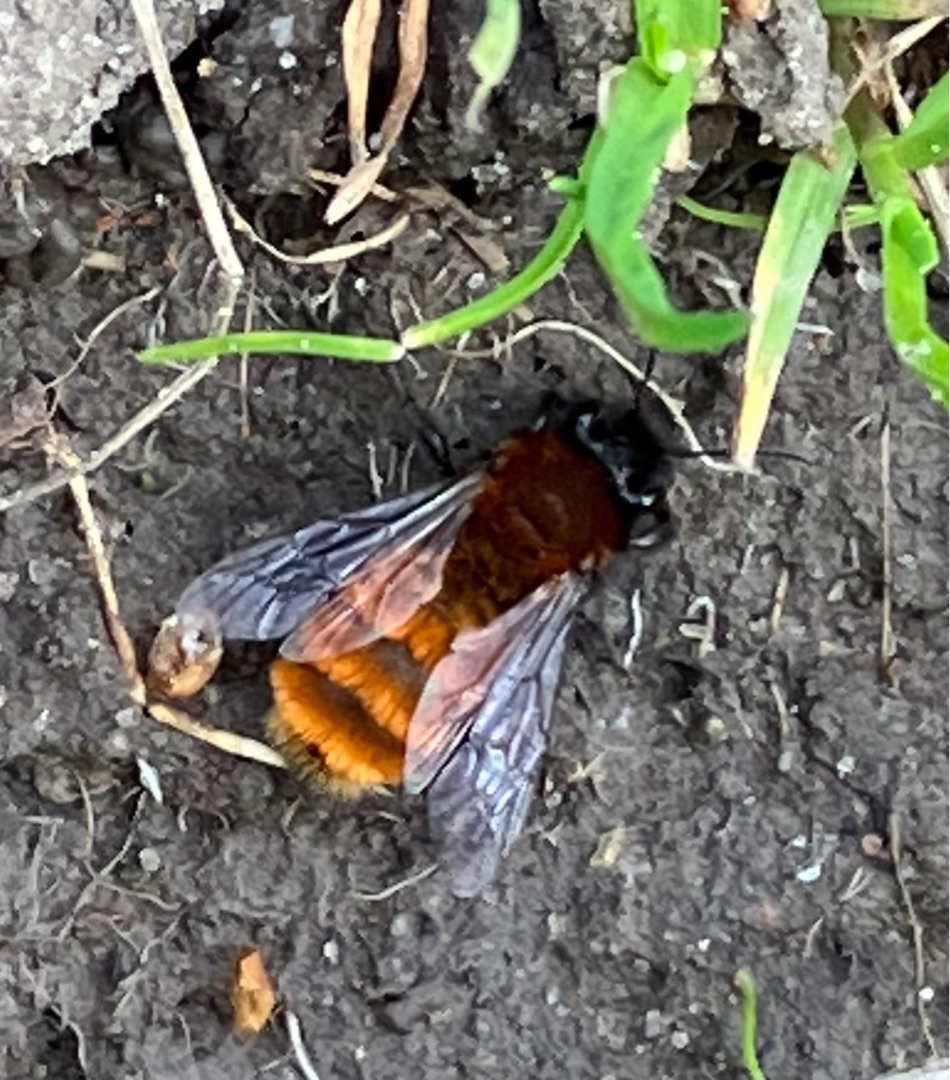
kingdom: Animalia
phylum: Arthropoda
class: Insecta
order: Hymenoptera
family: Andrenidae
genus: Andrena
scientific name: Andrena fulva
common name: Rødpelset jordbi
